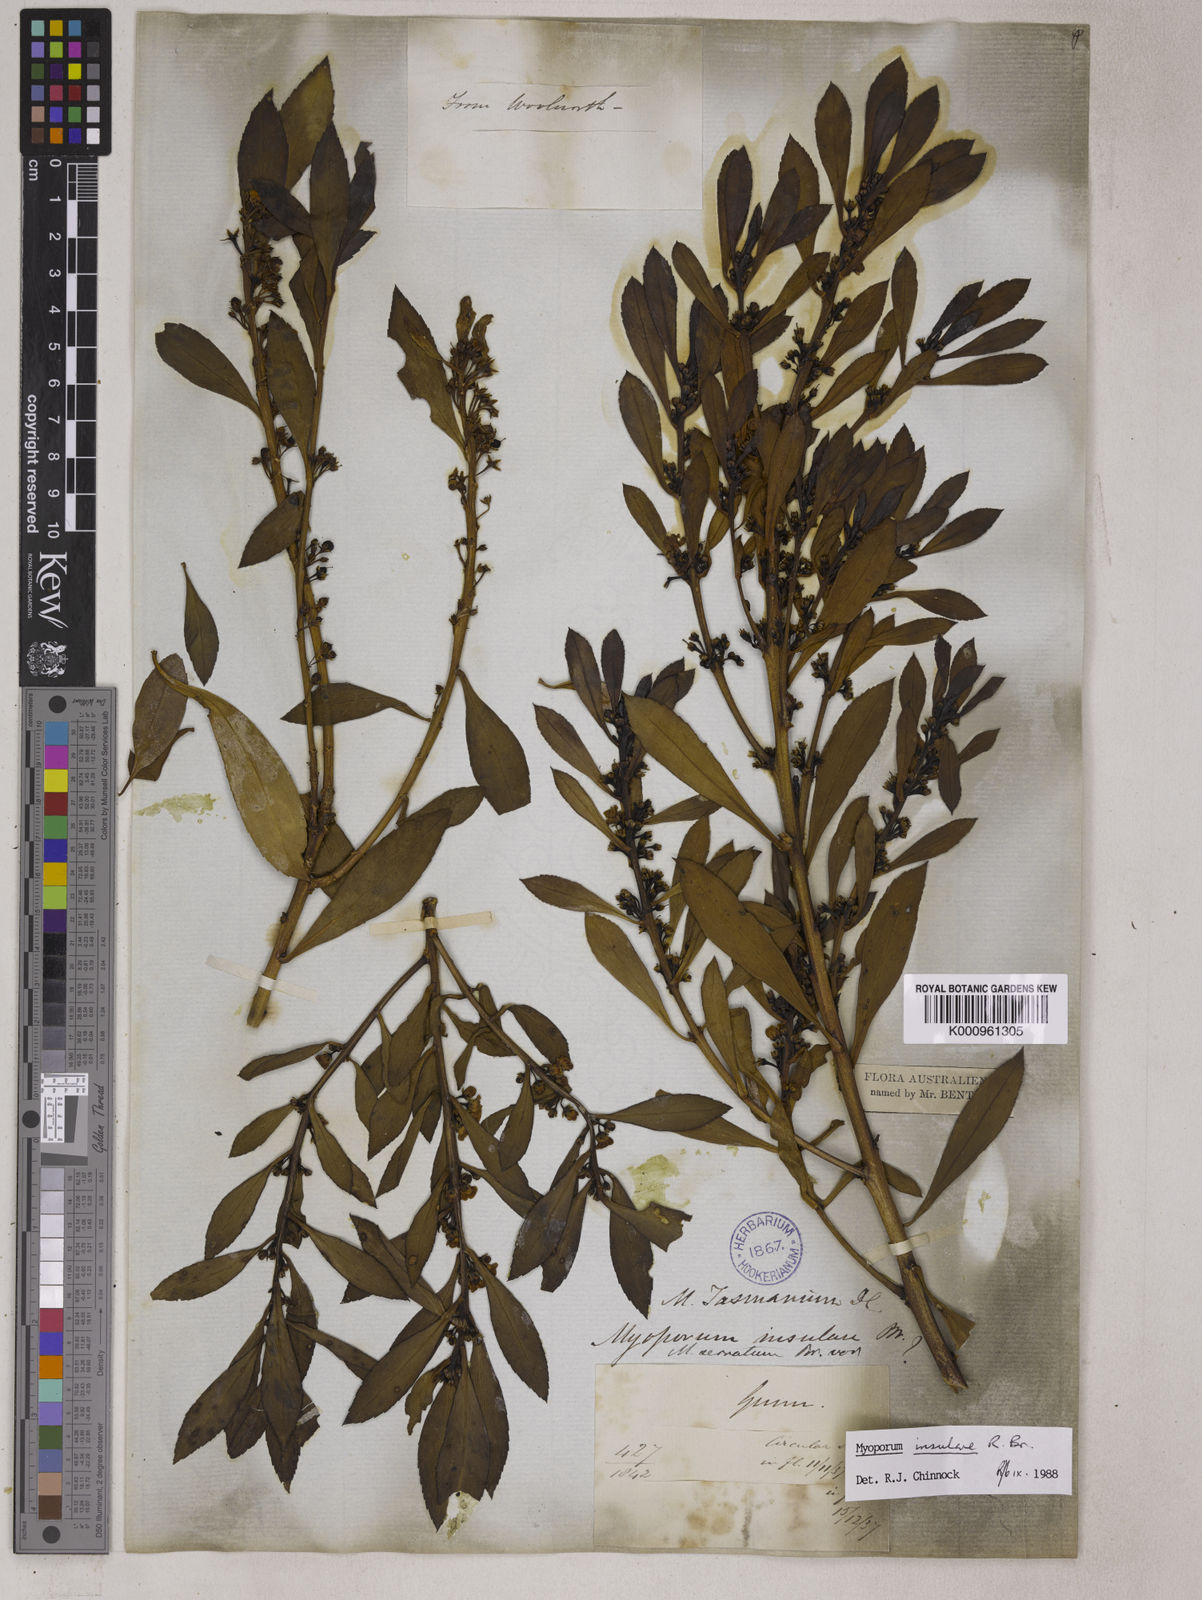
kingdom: Plantae
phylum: Tracheophyta
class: Magnoliopsida
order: Lamiales
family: Scrophulariaceae
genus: Myoporum
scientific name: Myoporum insulare
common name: Common boobialla
